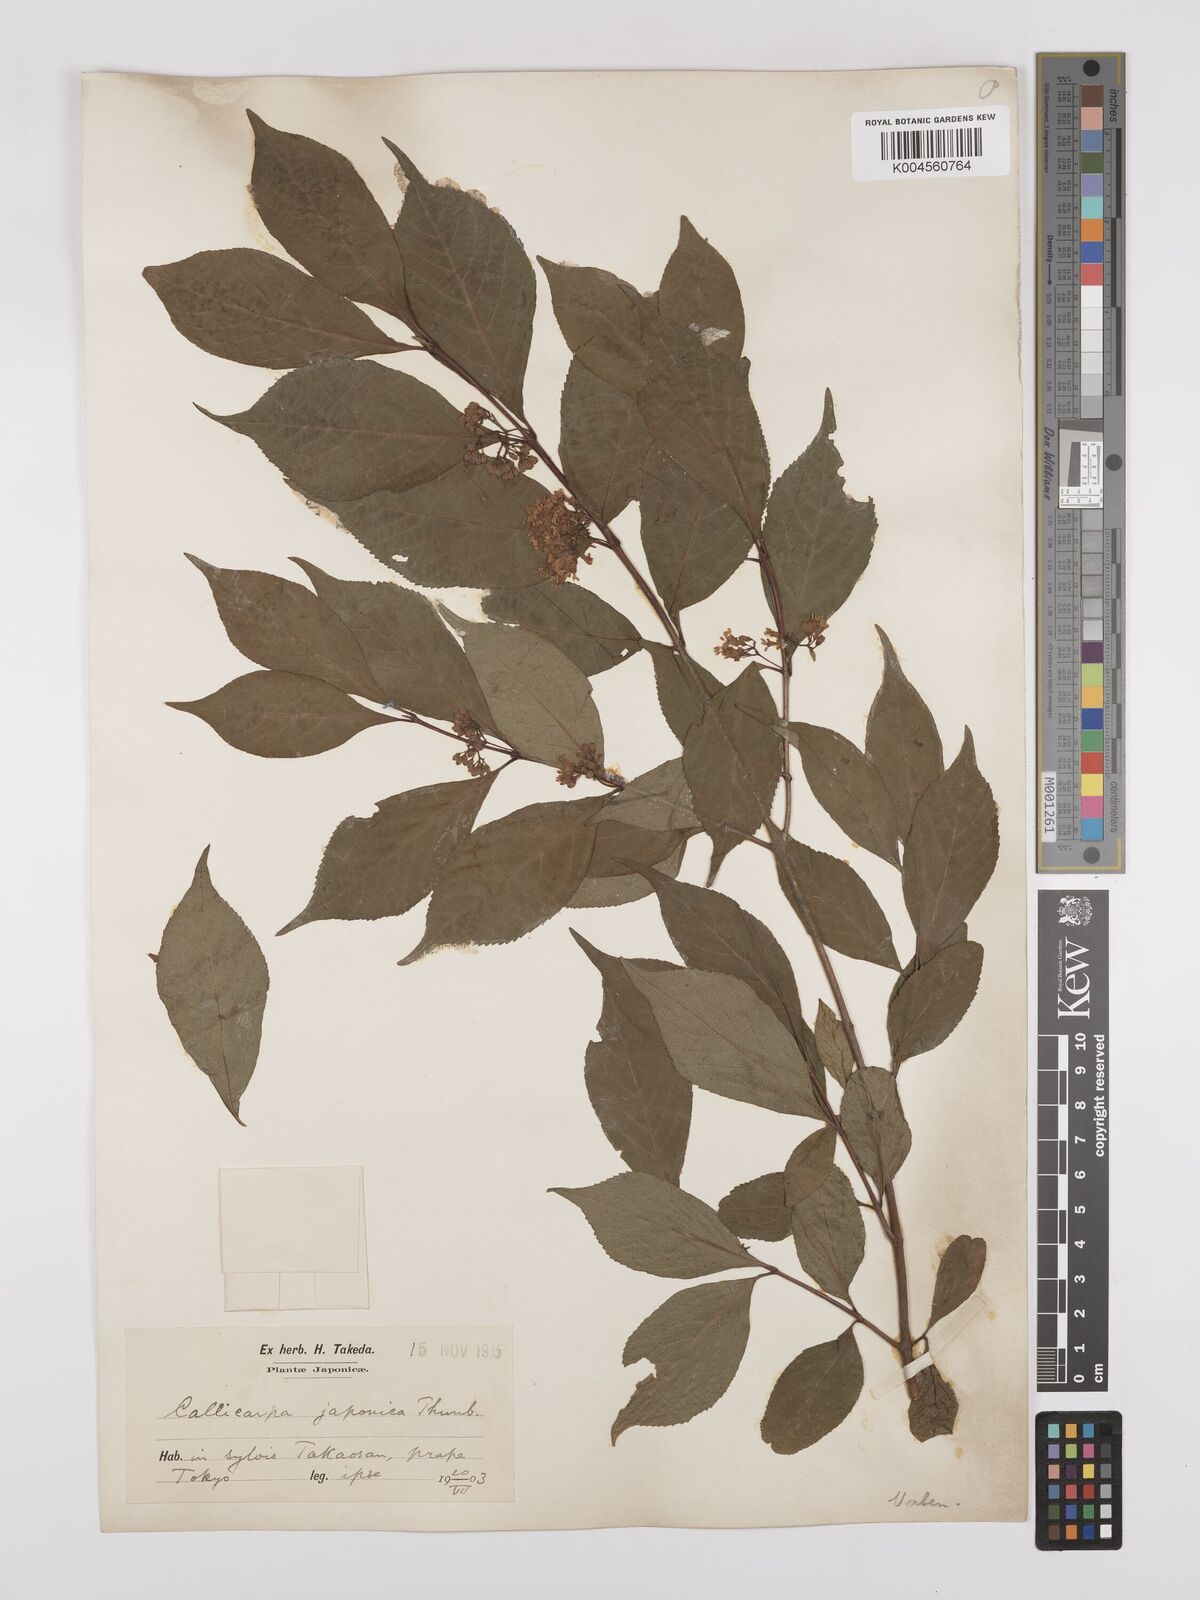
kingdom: Plantae
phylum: Tracheophyta
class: Magnoliopsida
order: Lamiales
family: Lamiaceae
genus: Callicarpa
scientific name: Callicarpa japonica
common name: Japanese beauty-berry
